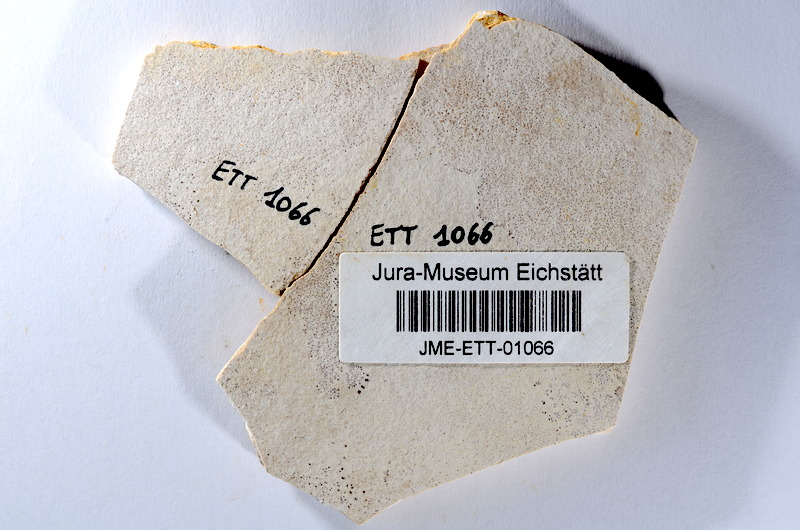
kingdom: Animalia
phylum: Chordata
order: Salmoniformes
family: Orthogonikleithridae
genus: Orthogonikleithrus
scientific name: Orthogonikleithrus hoelli
